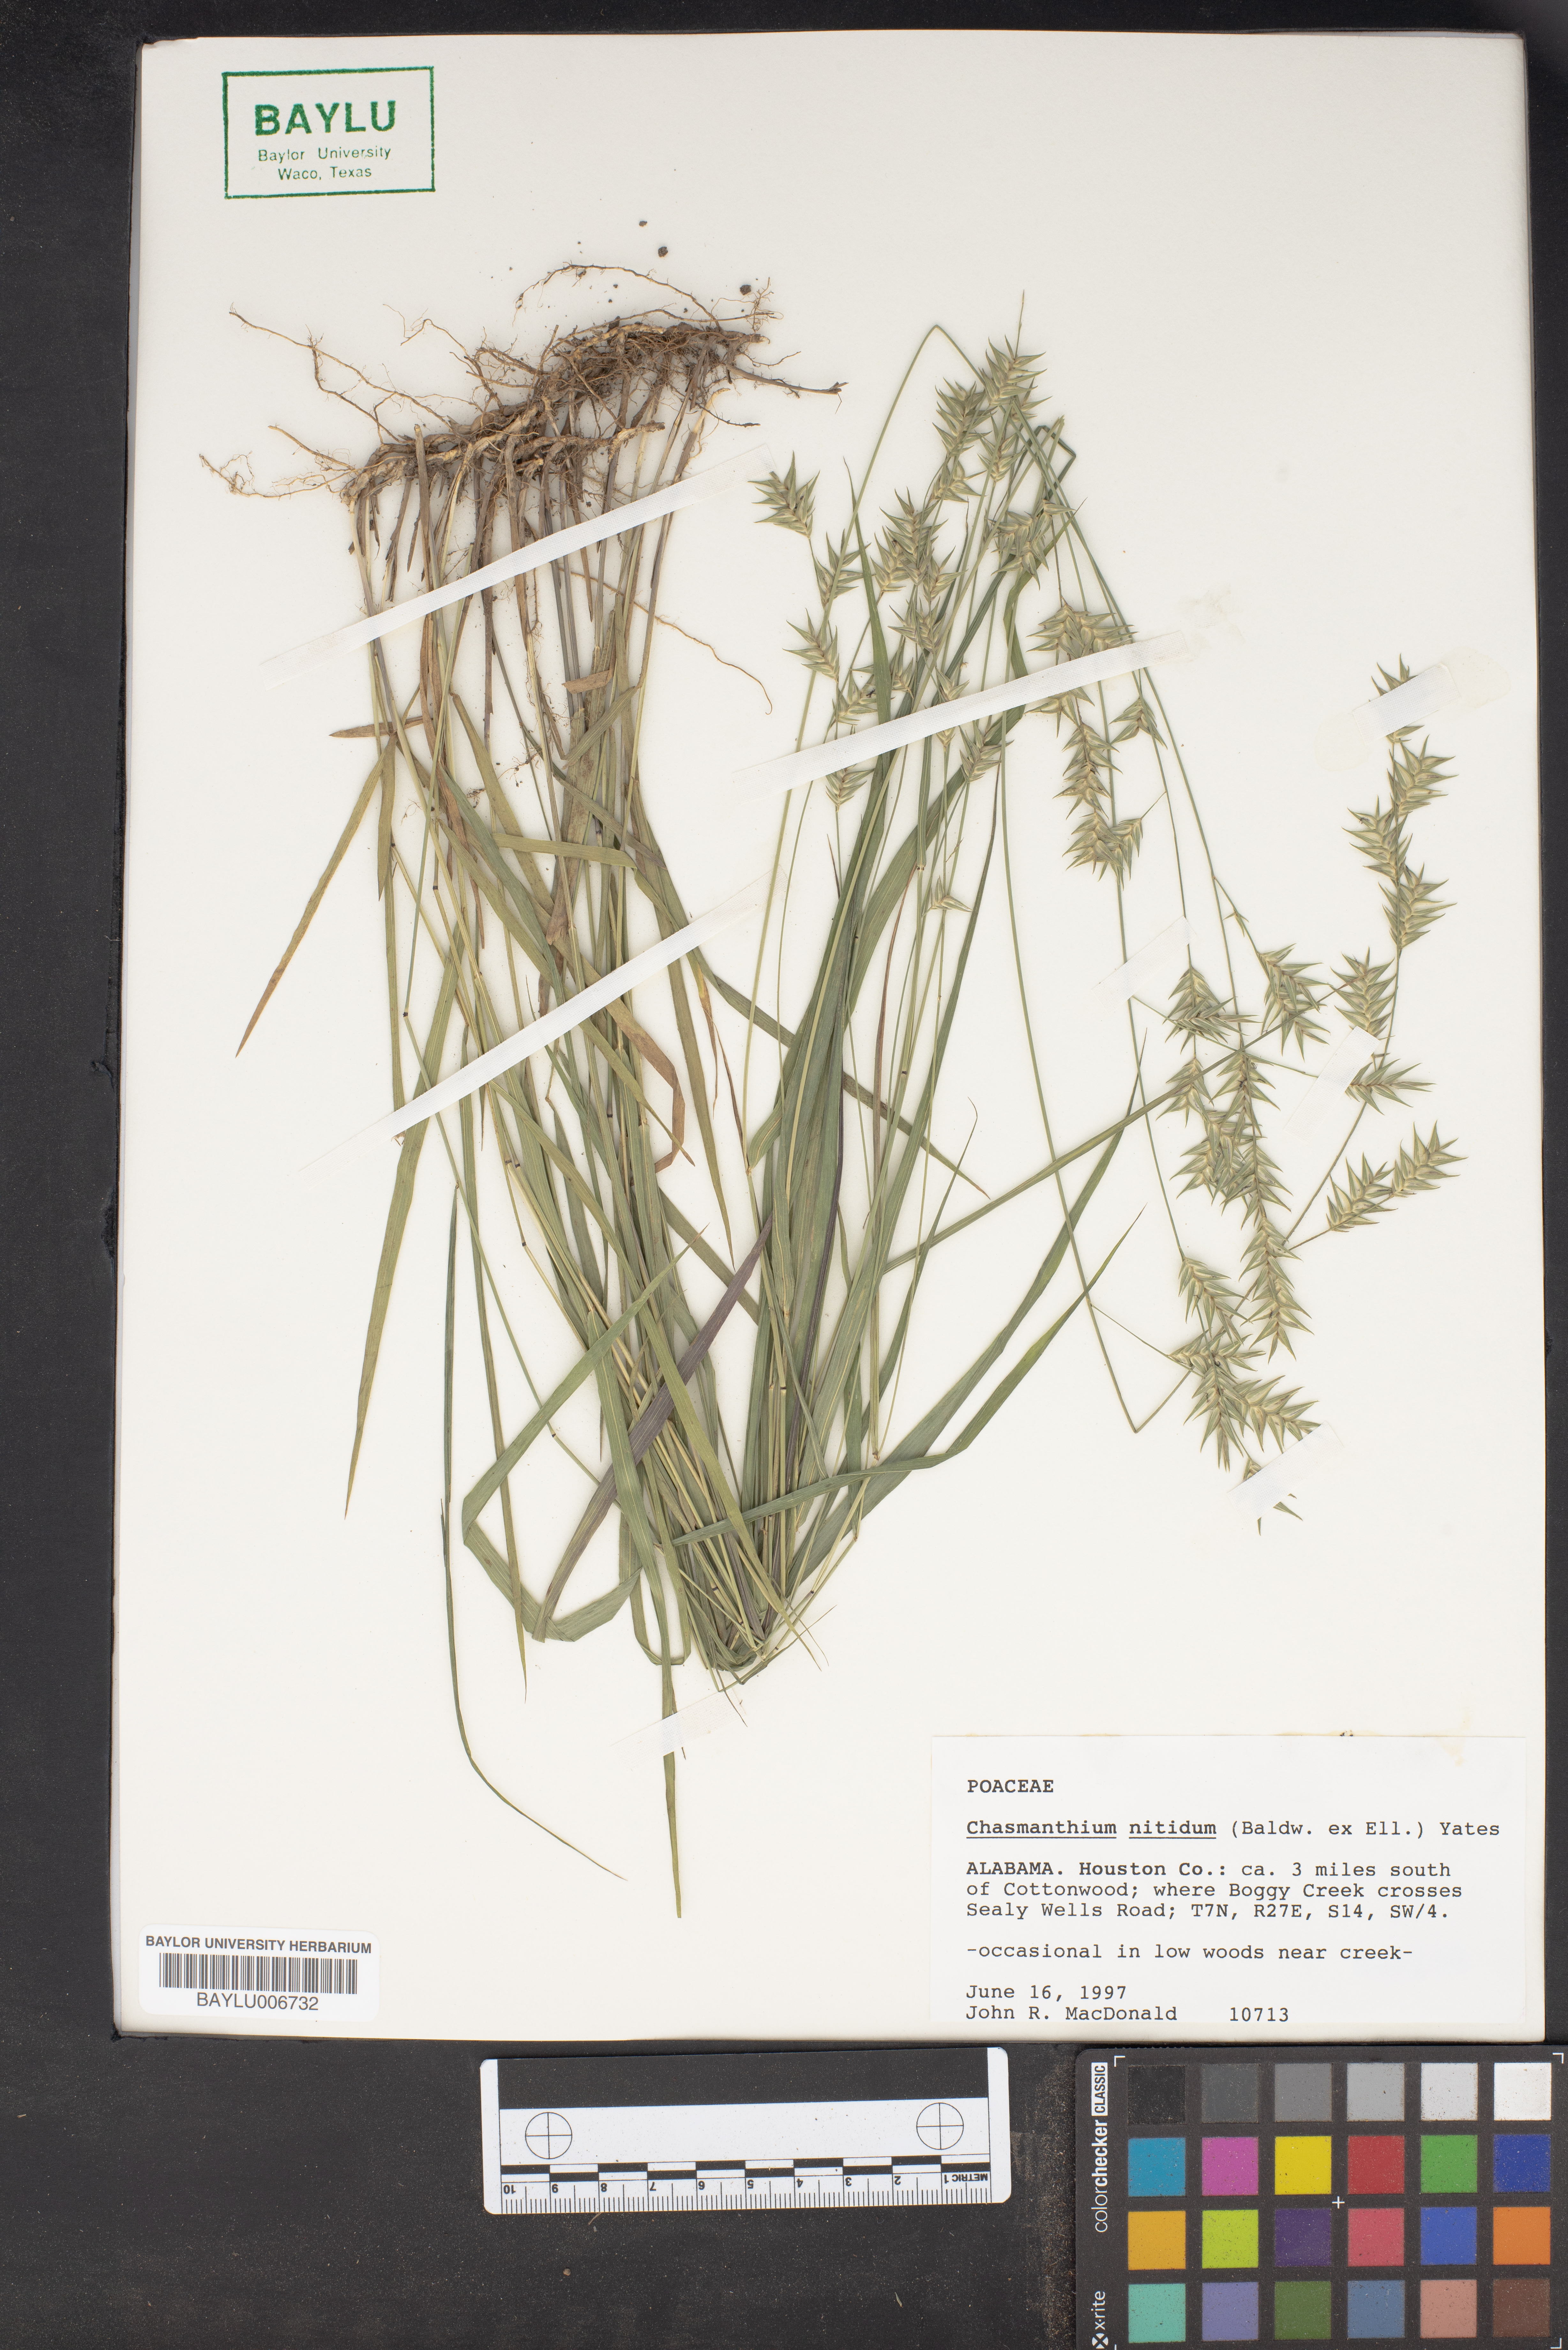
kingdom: Plantae
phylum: Tracheophyta
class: Liliopsida
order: Poales
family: Poaceae
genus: Chasmanthium
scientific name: Chasmanthium nitidum
